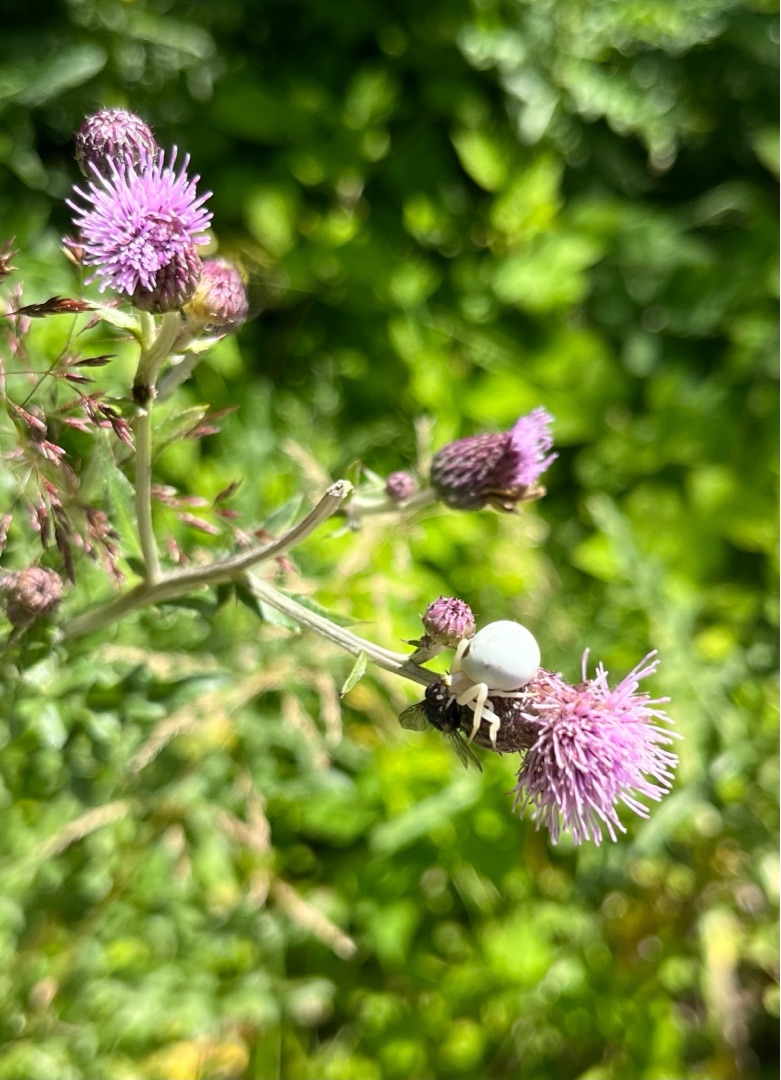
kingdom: Animalia
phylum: Arthropoda
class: Arachnida
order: Araneae
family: Thomisidae
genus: Misumena
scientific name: Misumena vatia
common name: Kamæleonedderkop
